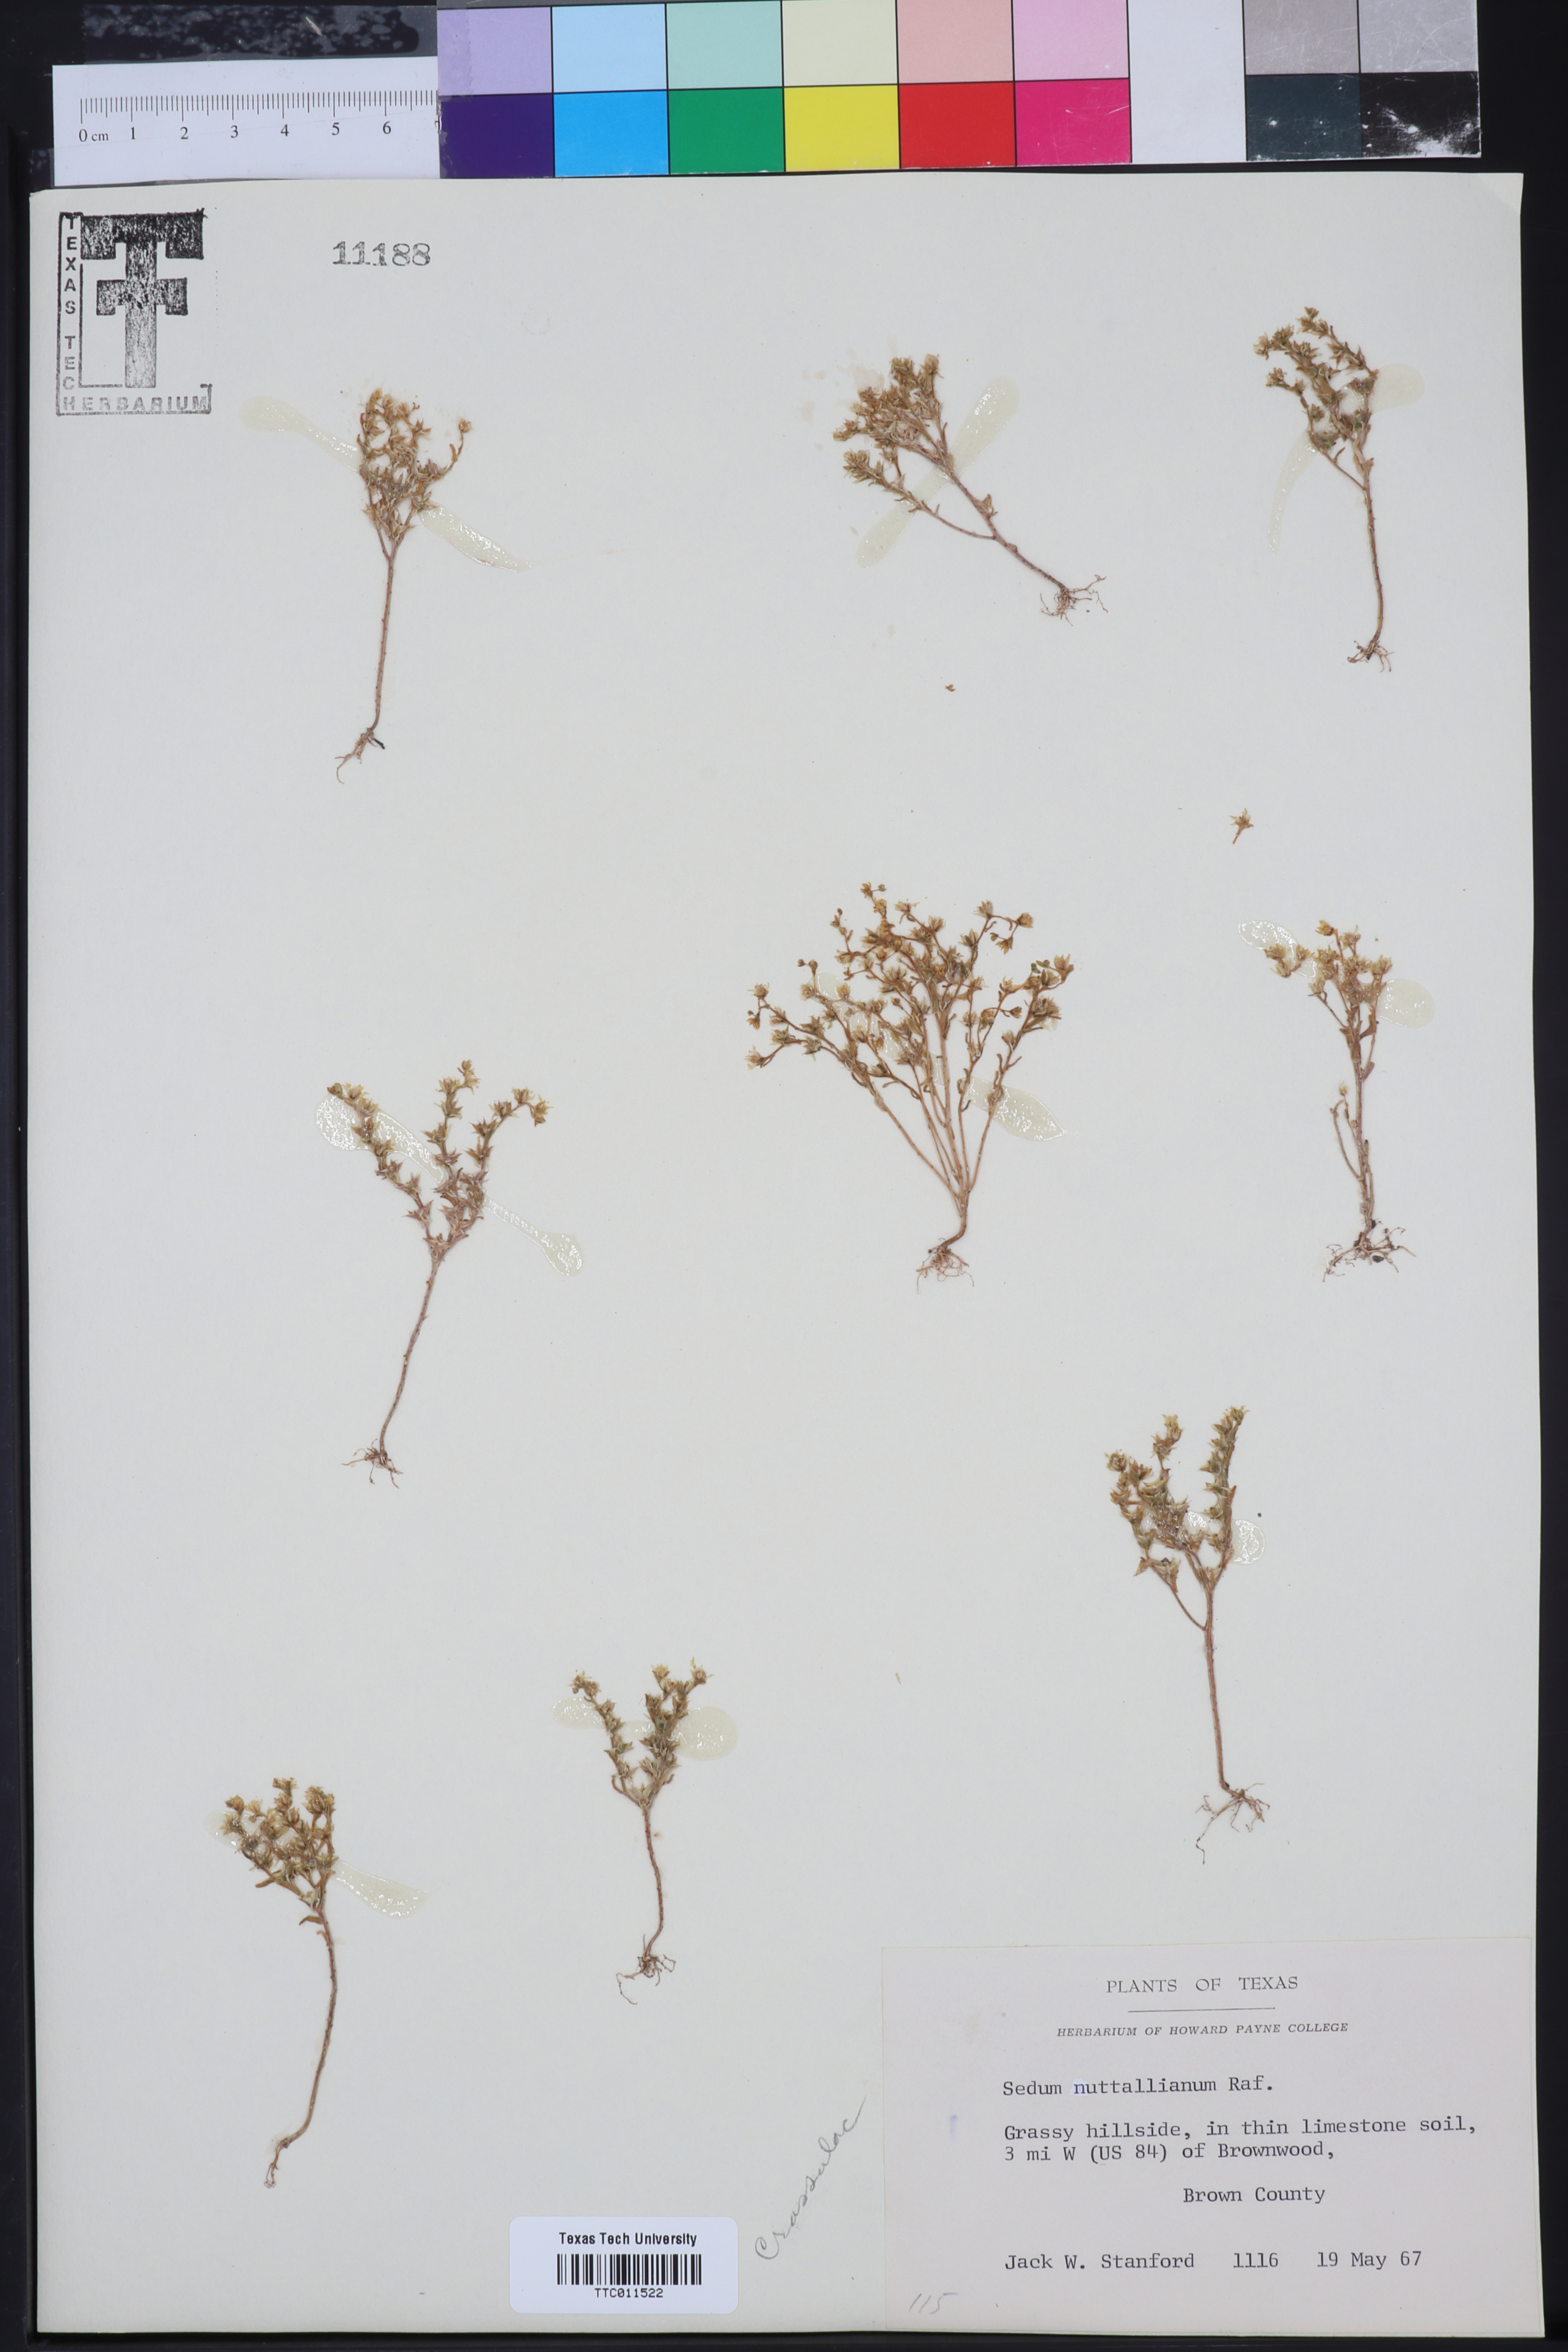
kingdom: Plantae
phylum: Tracheophyta
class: Magnoliopsida
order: Saxifragales
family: Crassulaceae
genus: Sedum
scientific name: Sedum nuttallii
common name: Yellow stonecrop
